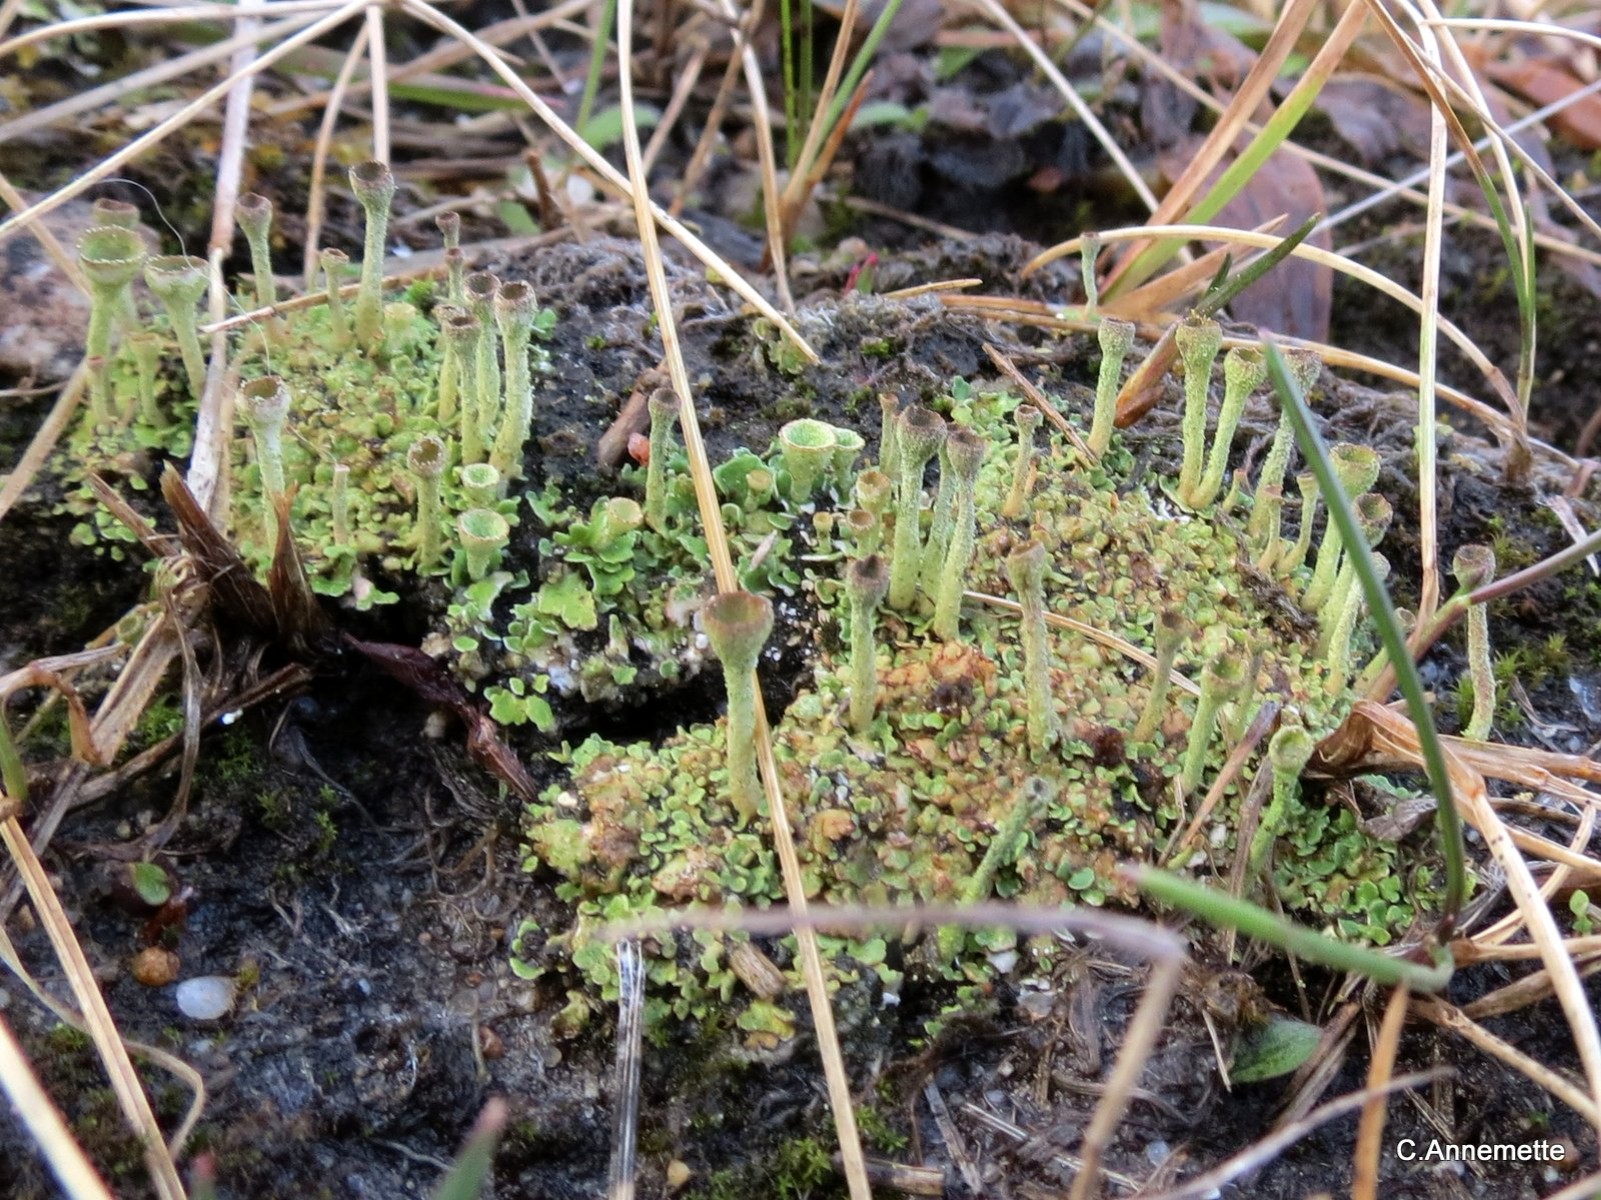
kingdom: Fungi
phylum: Ascomycota
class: Lecanoromycetes
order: Lecanorales
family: Cladoniaceae
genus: Cladonia
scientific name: Cladonia
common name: brungrøn bægerlav
